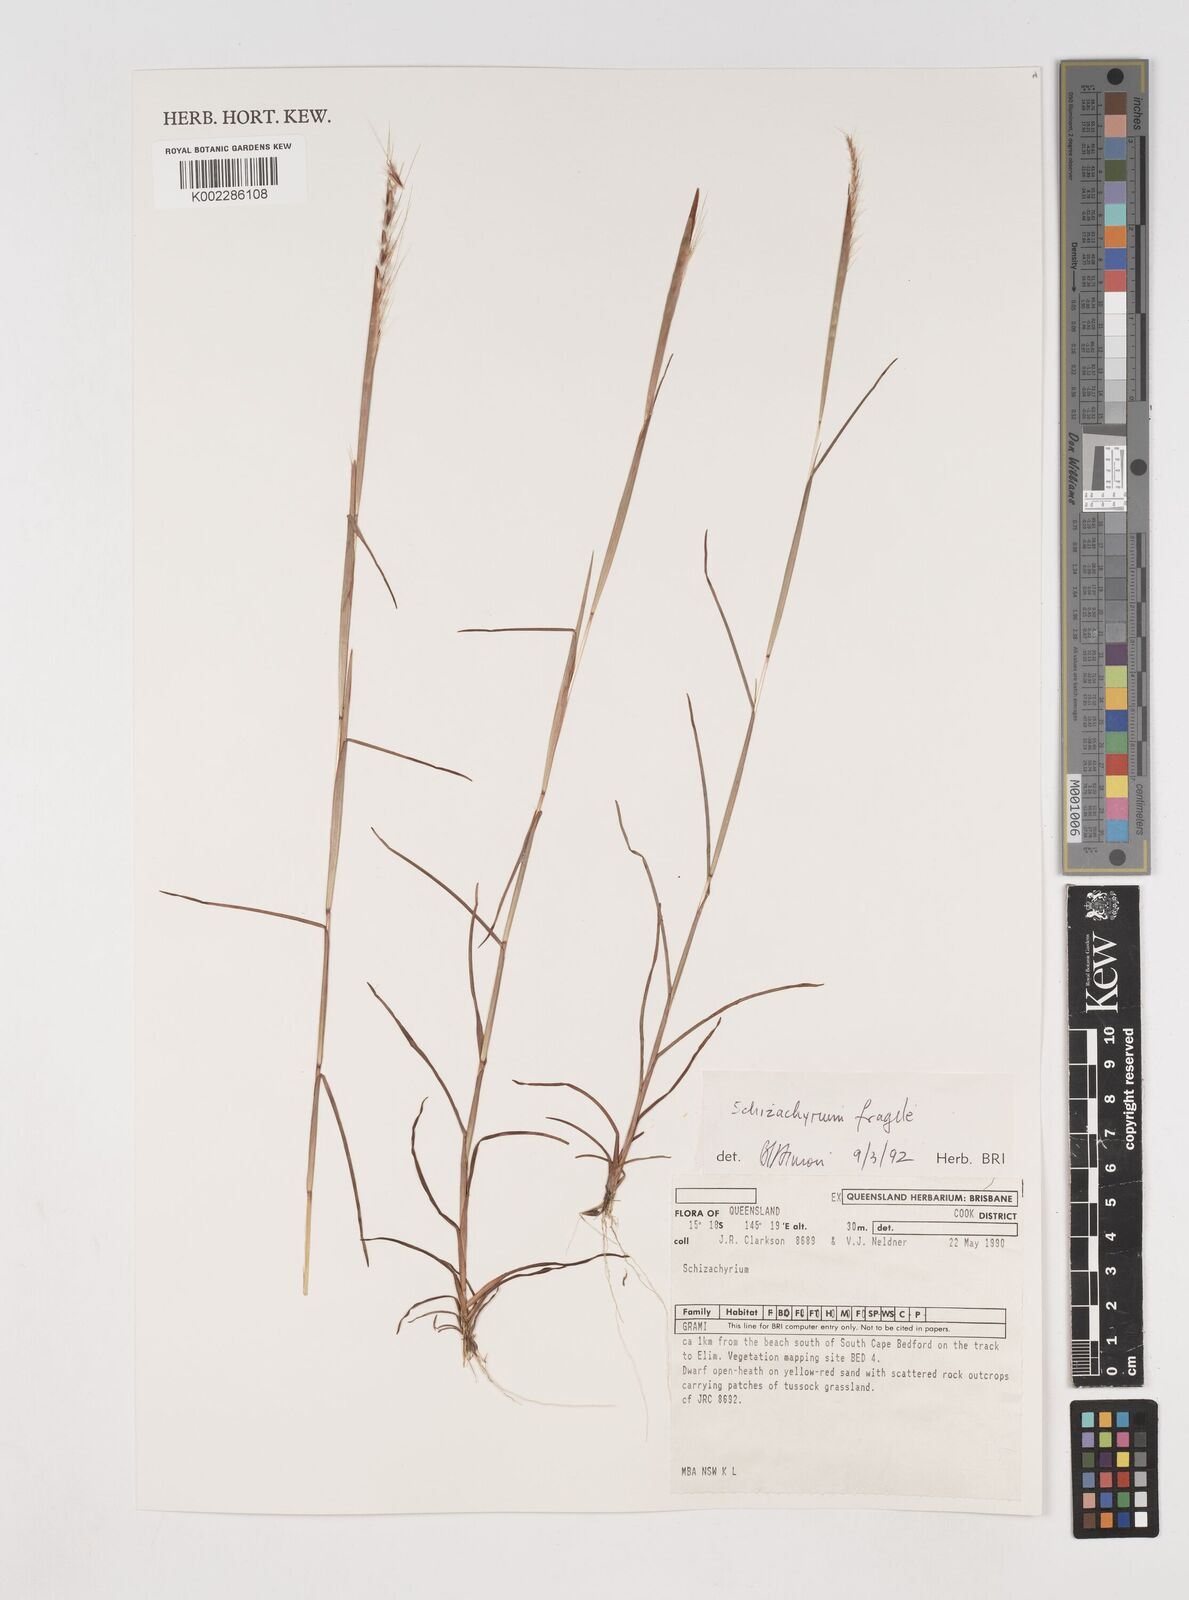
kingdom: Plantae
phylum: Tracheophyta
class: Liliopsida
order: Poales
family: Poaceae
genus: Schizachyrium
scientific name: Schizachyrium fragile
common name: Red spathe grass
